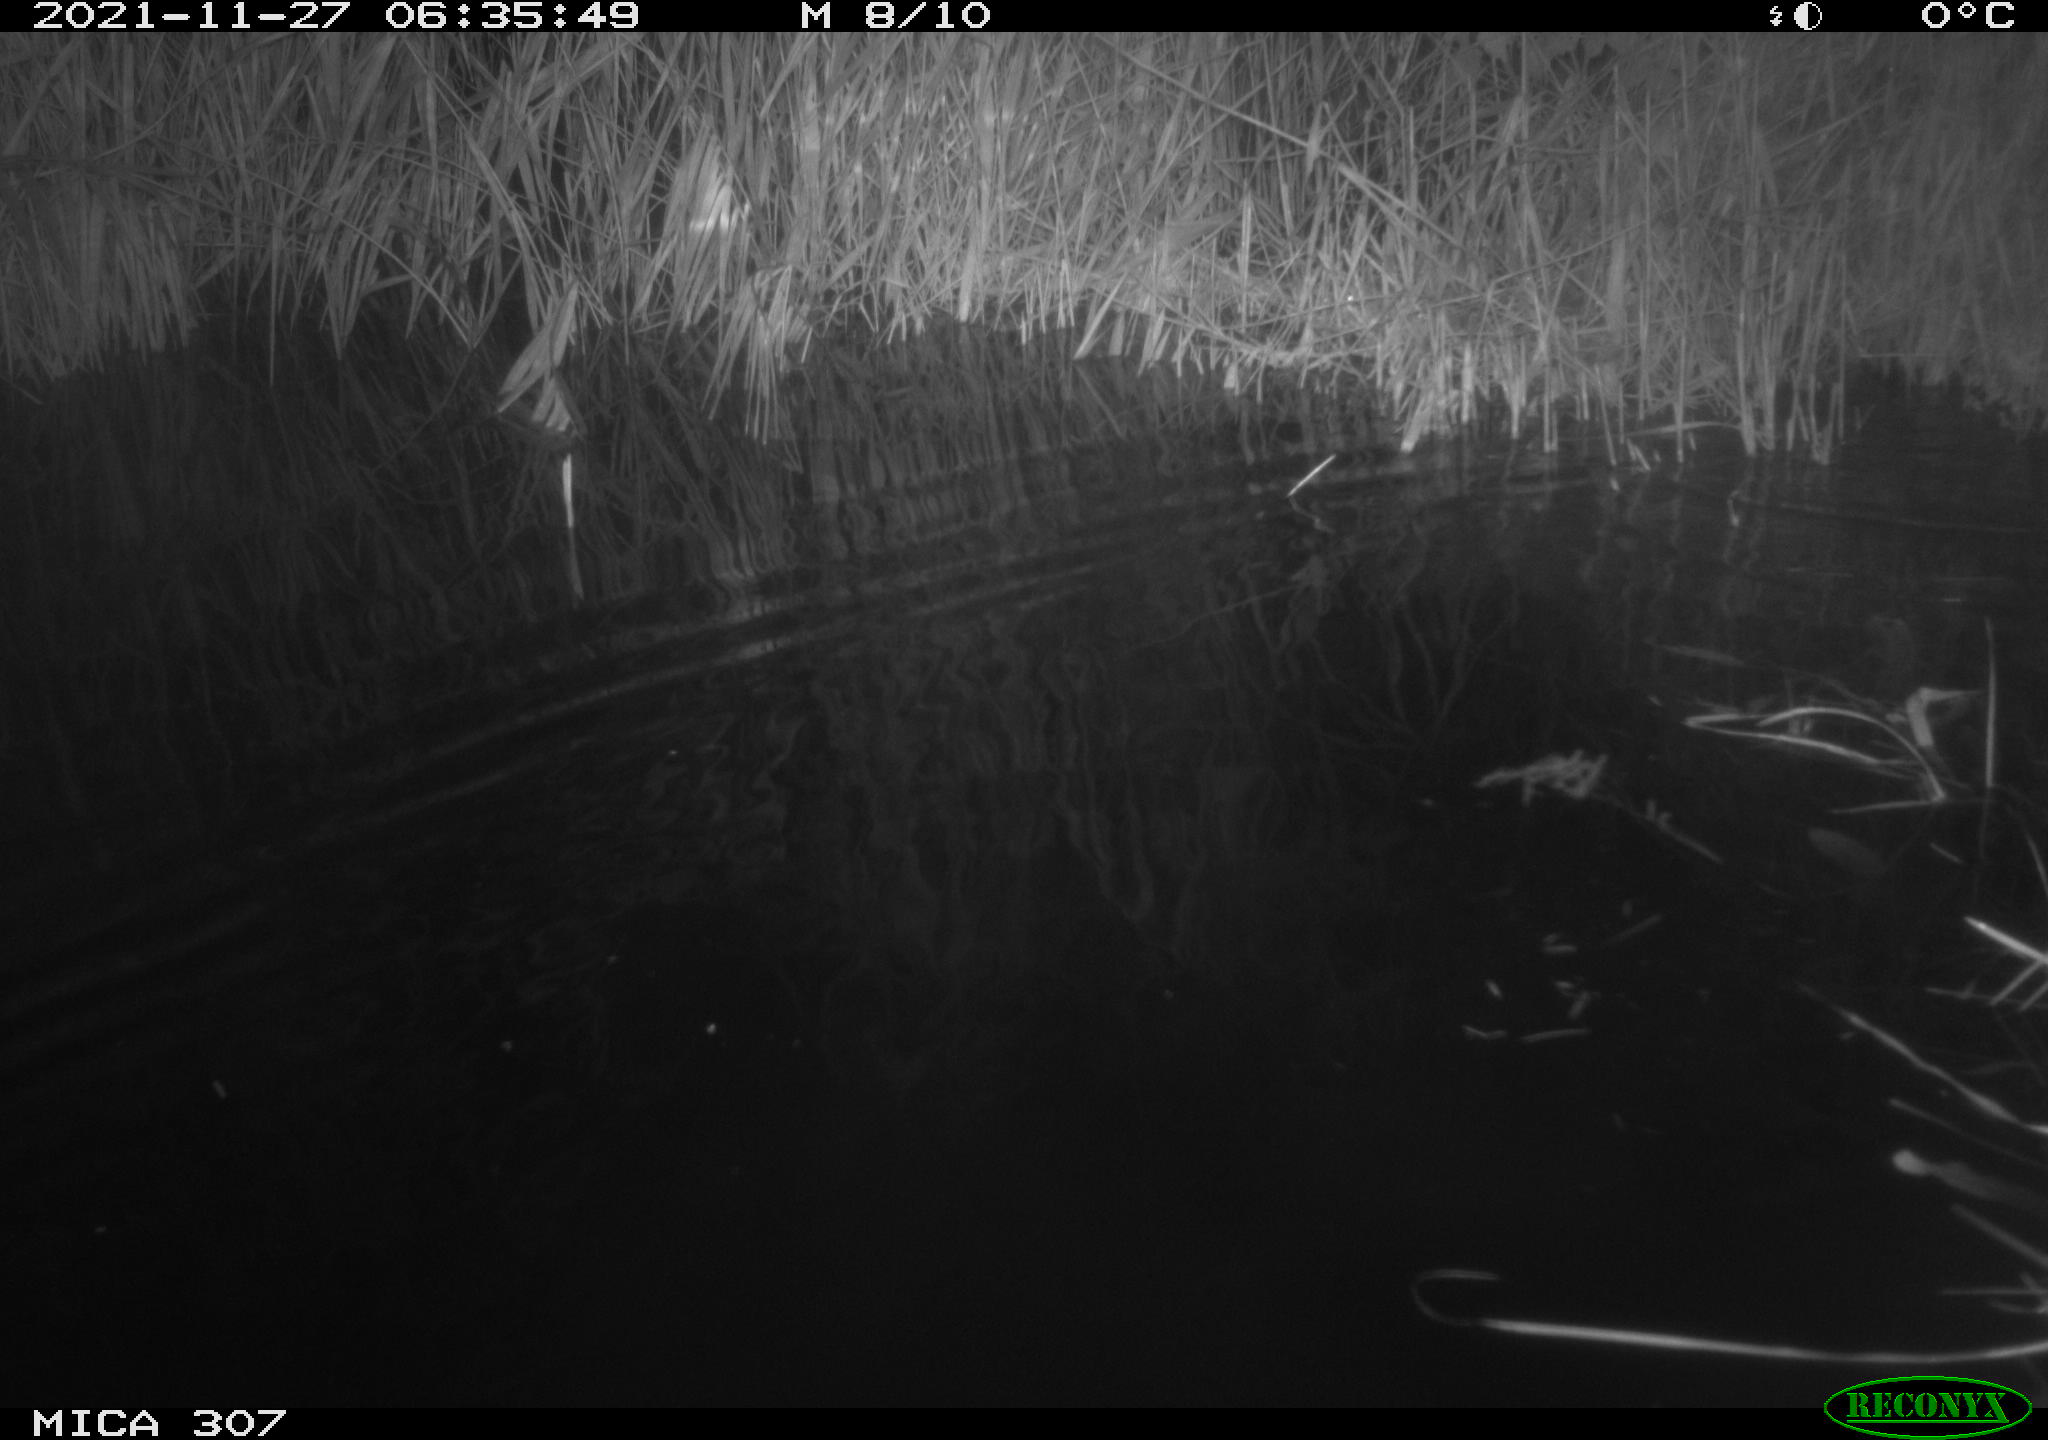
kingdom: Animalia
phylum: Chordata
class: Mammalia
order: Rodentia
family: Muridae
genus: Rattus
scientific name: Rattus norvegicus
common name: Brown rat
